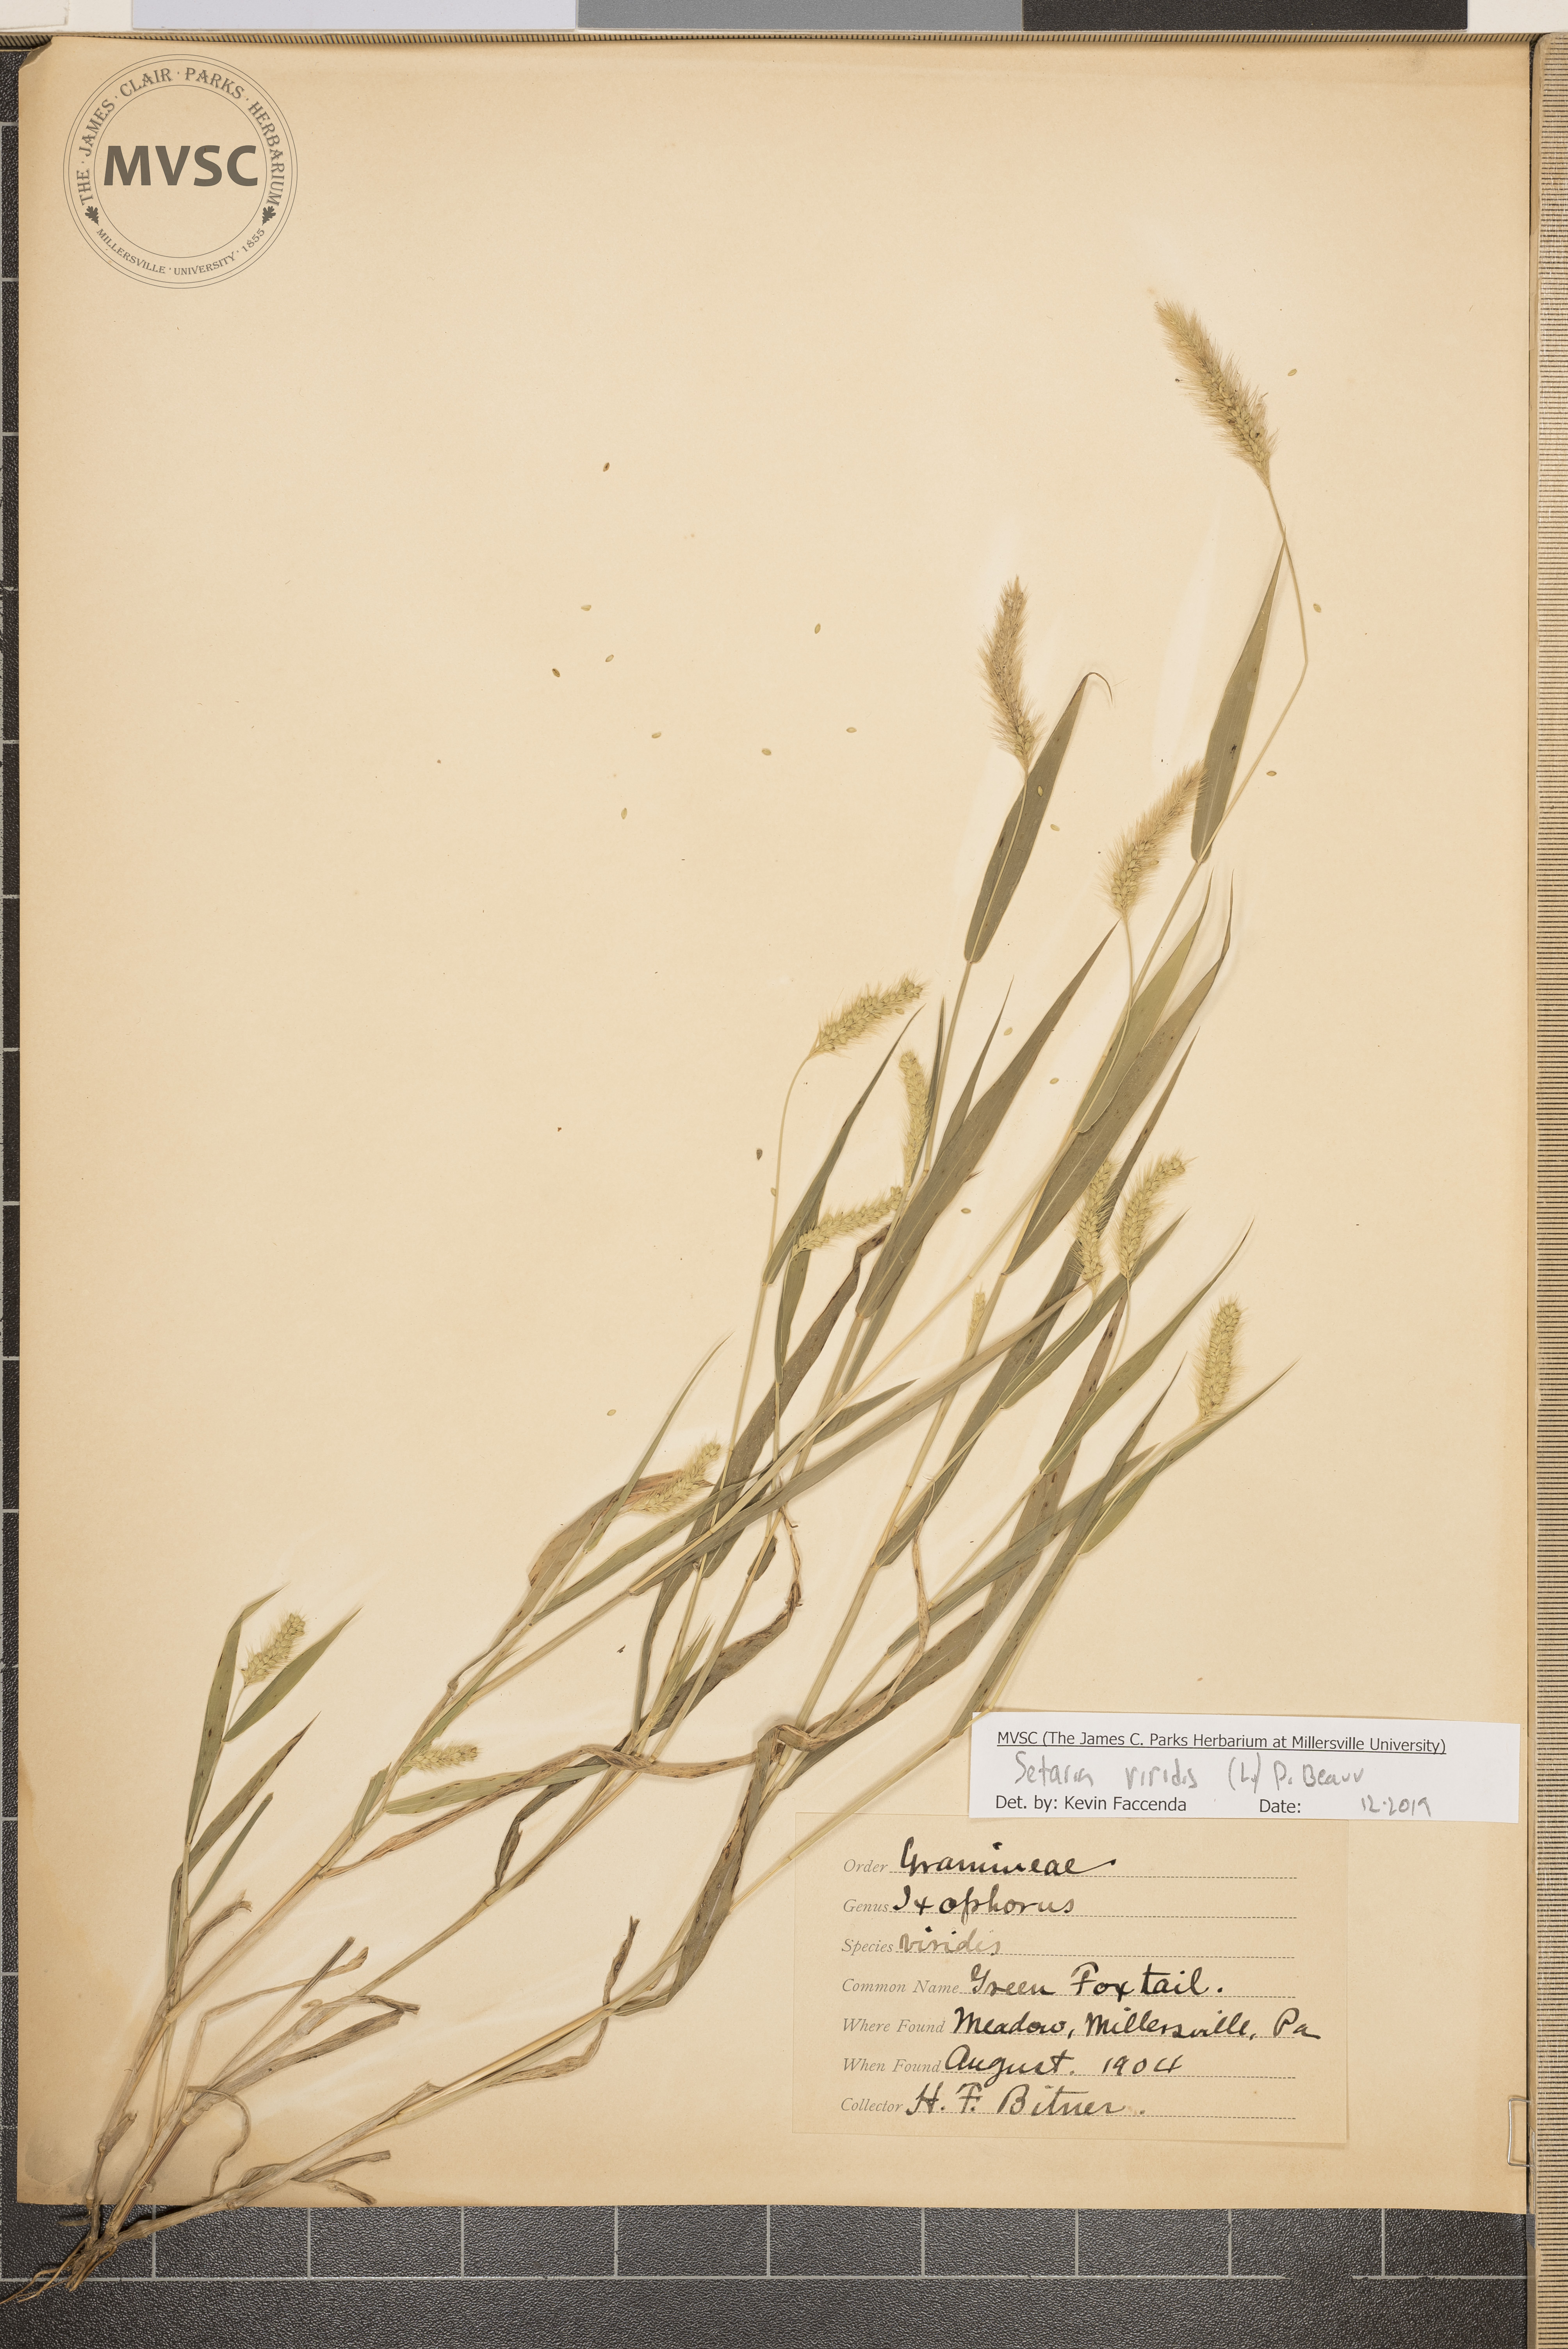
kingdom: Plantae
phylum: Tracheophyta
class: Liliopsida
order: Poales
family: Poaceae
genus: Setaria
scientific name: Setaria viridis
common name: Green foxtail
